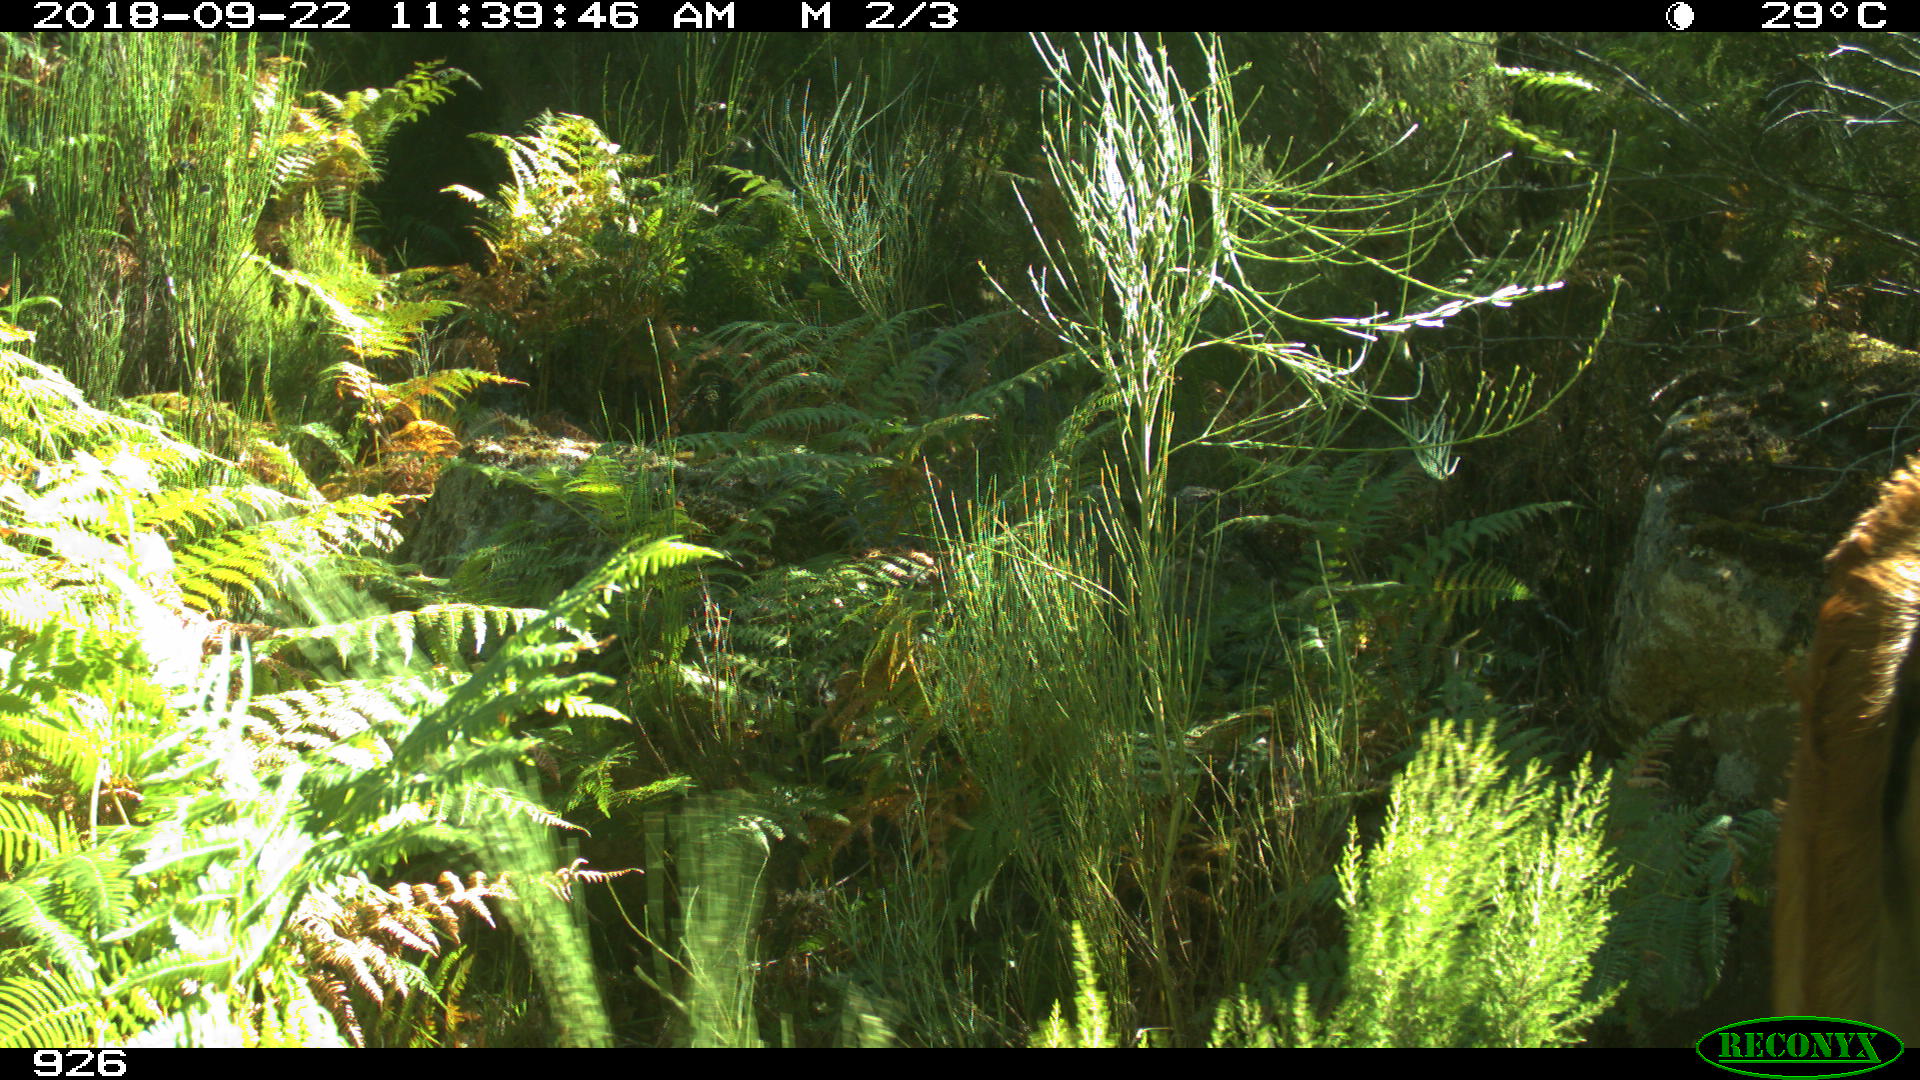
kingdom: Animalia
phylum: Chordata
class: Mammalia
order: Artiodactyla
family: Bovidae
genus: Bos
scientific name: Bos taurus
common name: Domesticated cattle
